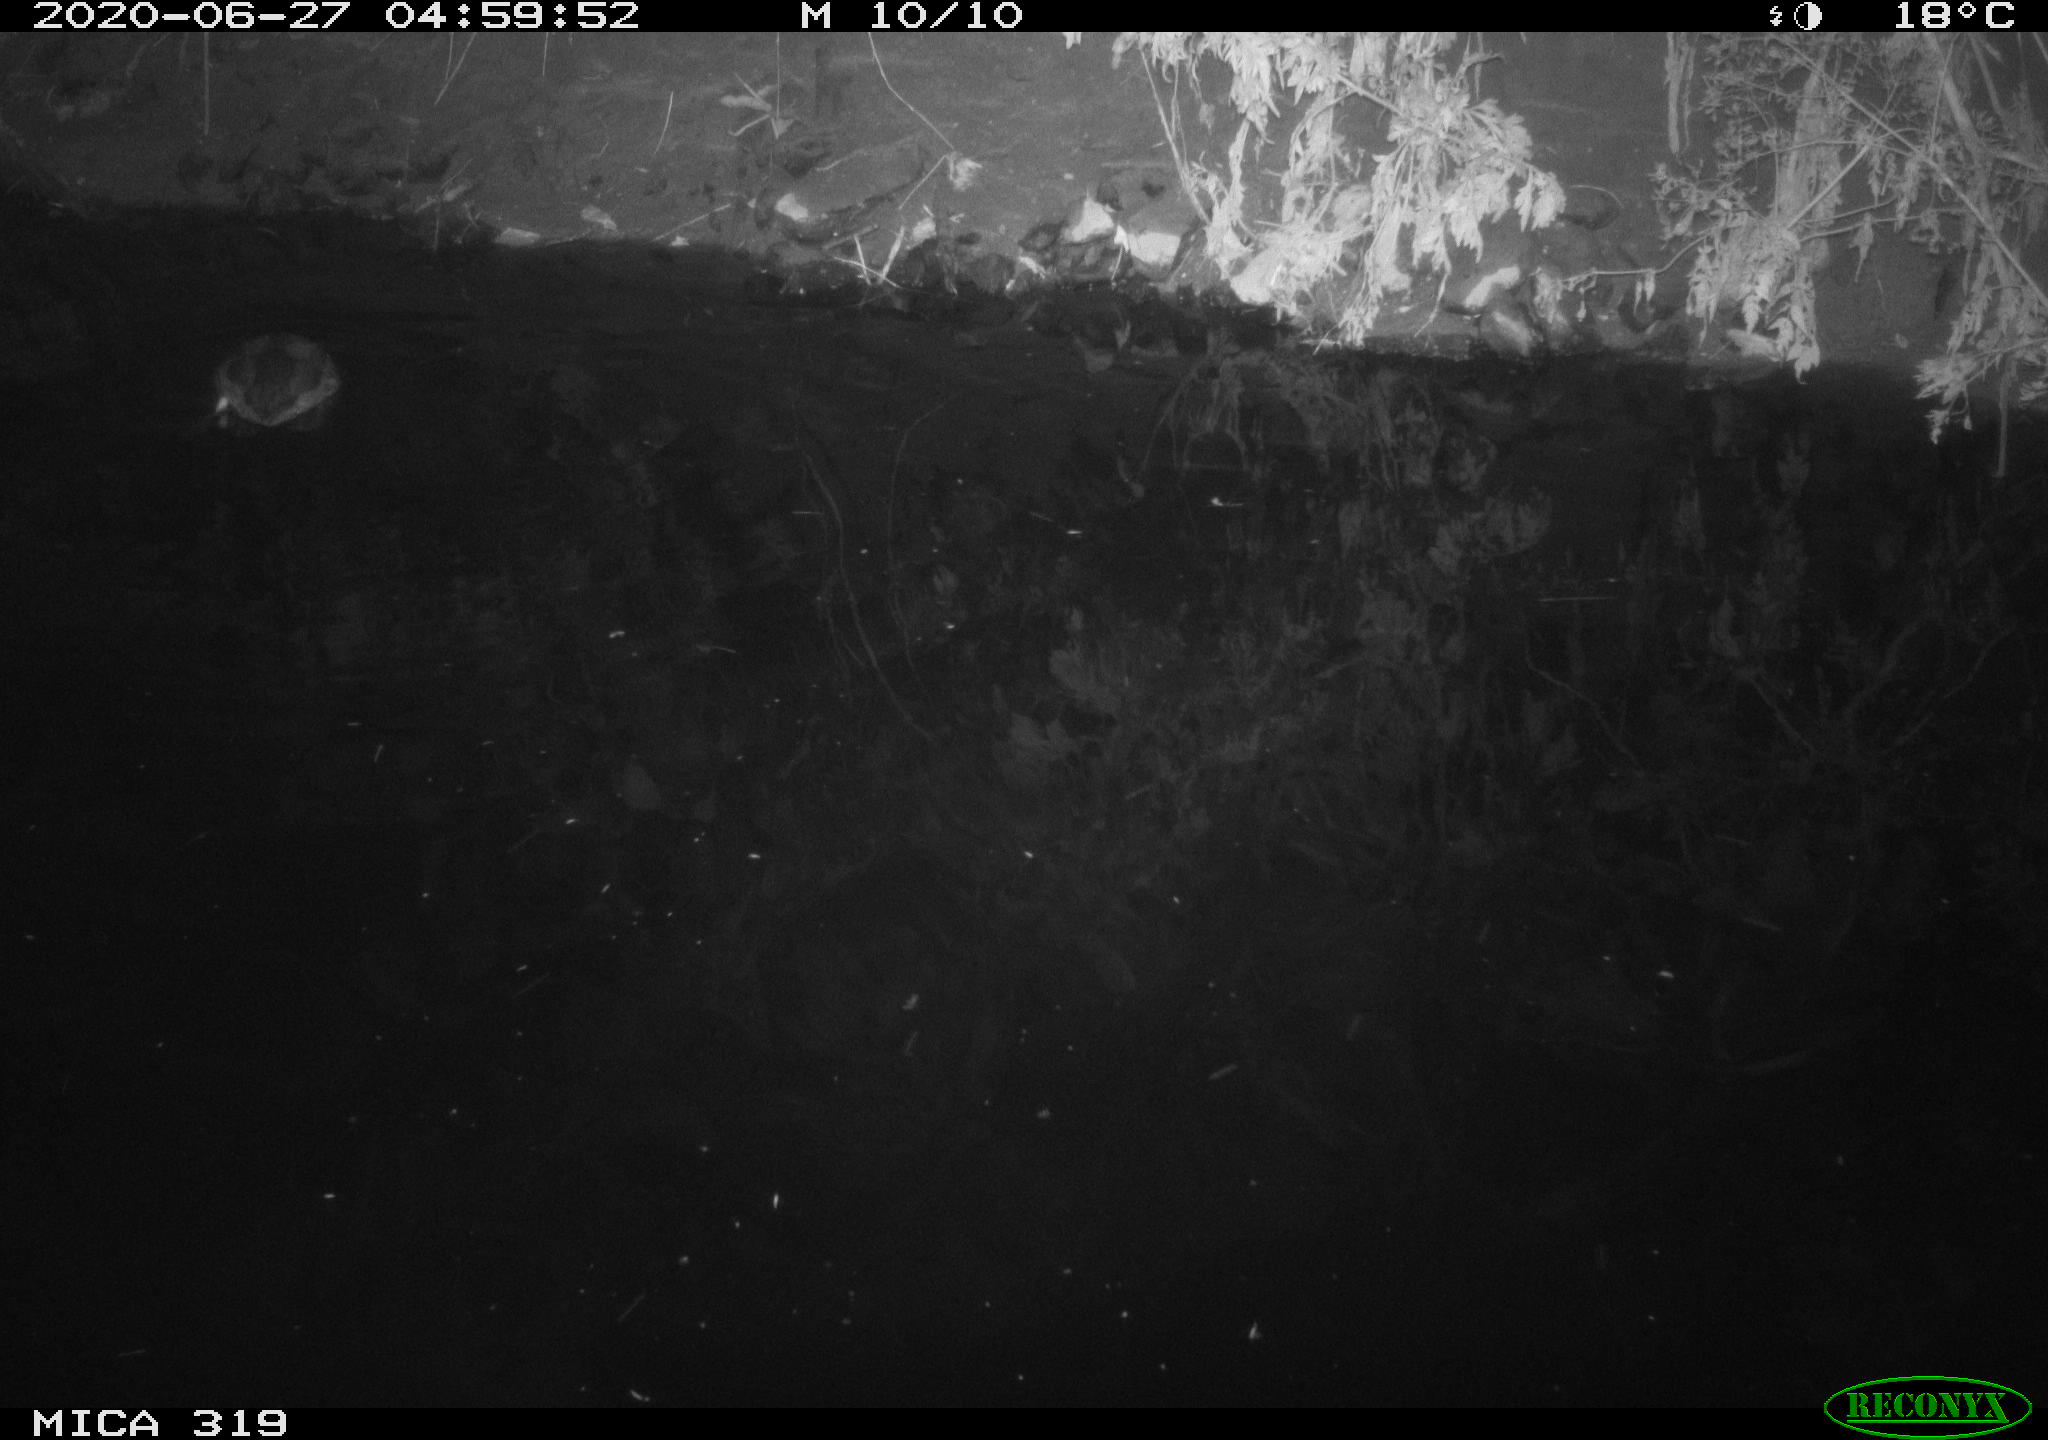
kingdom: Animalia
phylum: Chordata
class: Aves
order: Anseriformes
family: Anatidae
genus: Anas
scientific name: Anas platyrhynchos
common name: Mallard
